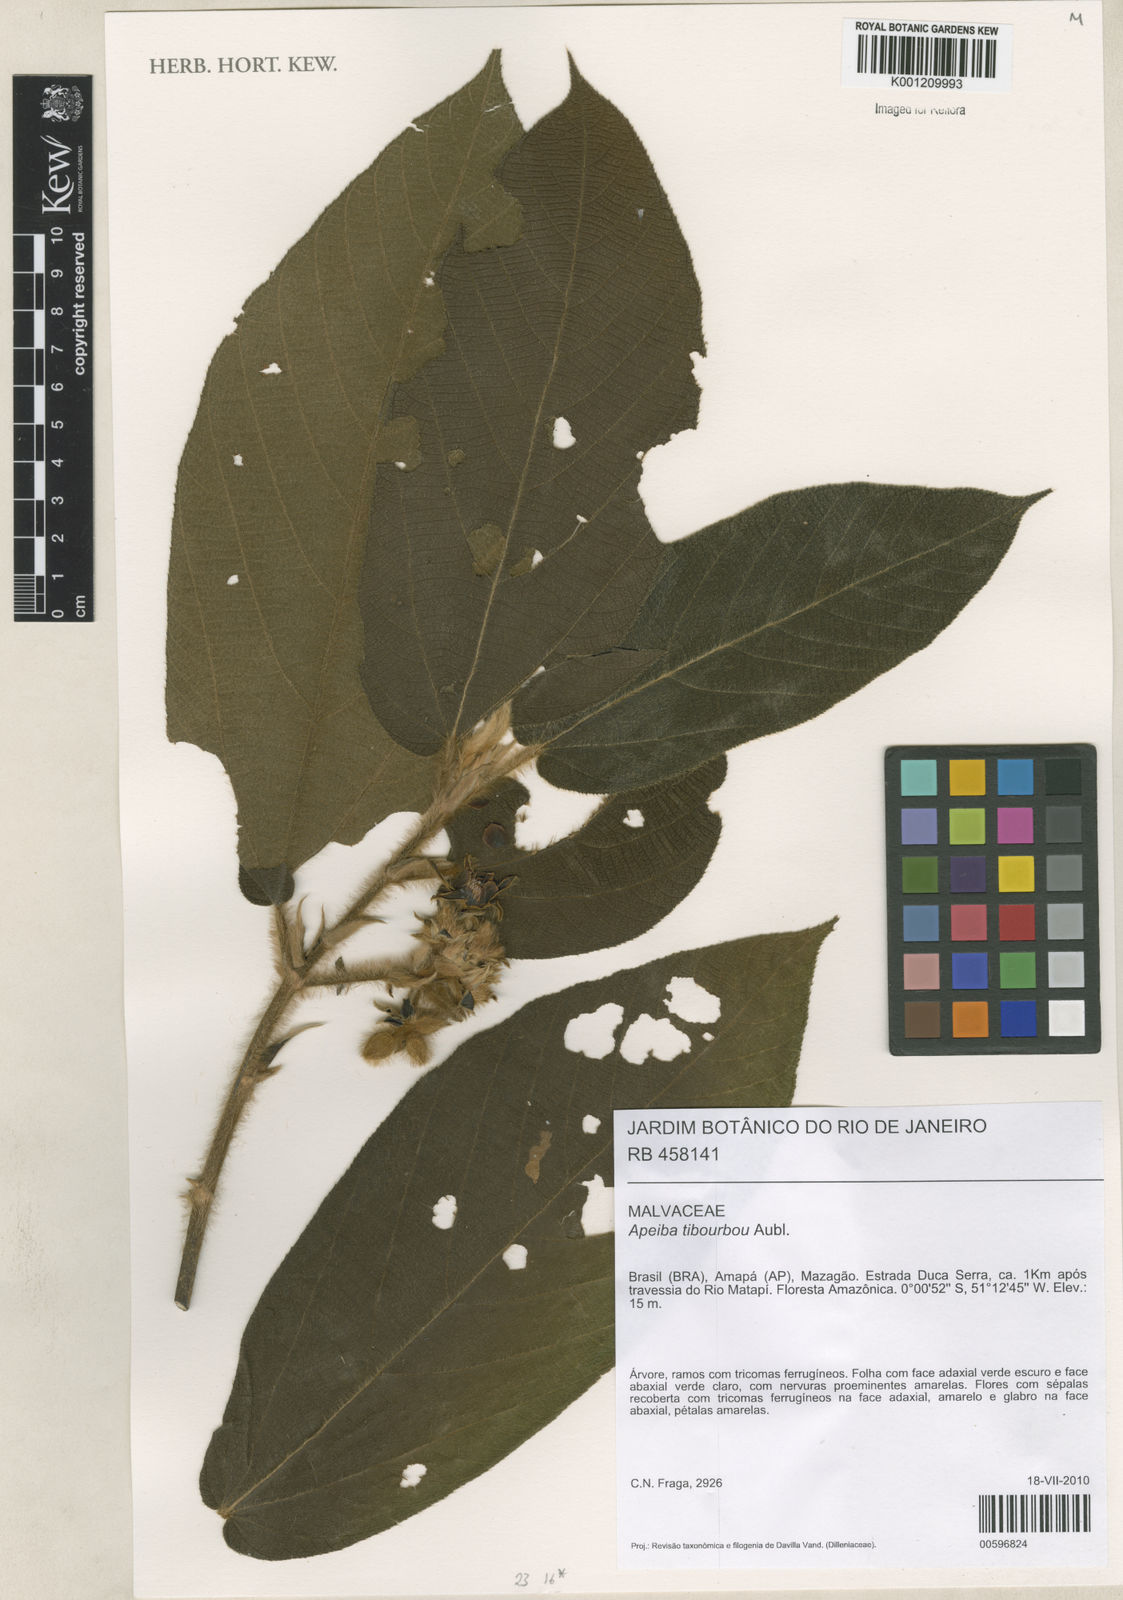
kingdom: Plantae
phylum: Tracheophyta
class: Magnoliopsida
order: Malvales
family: Malvaceae
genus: Apeiba
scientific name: Apeiba tibourbou
